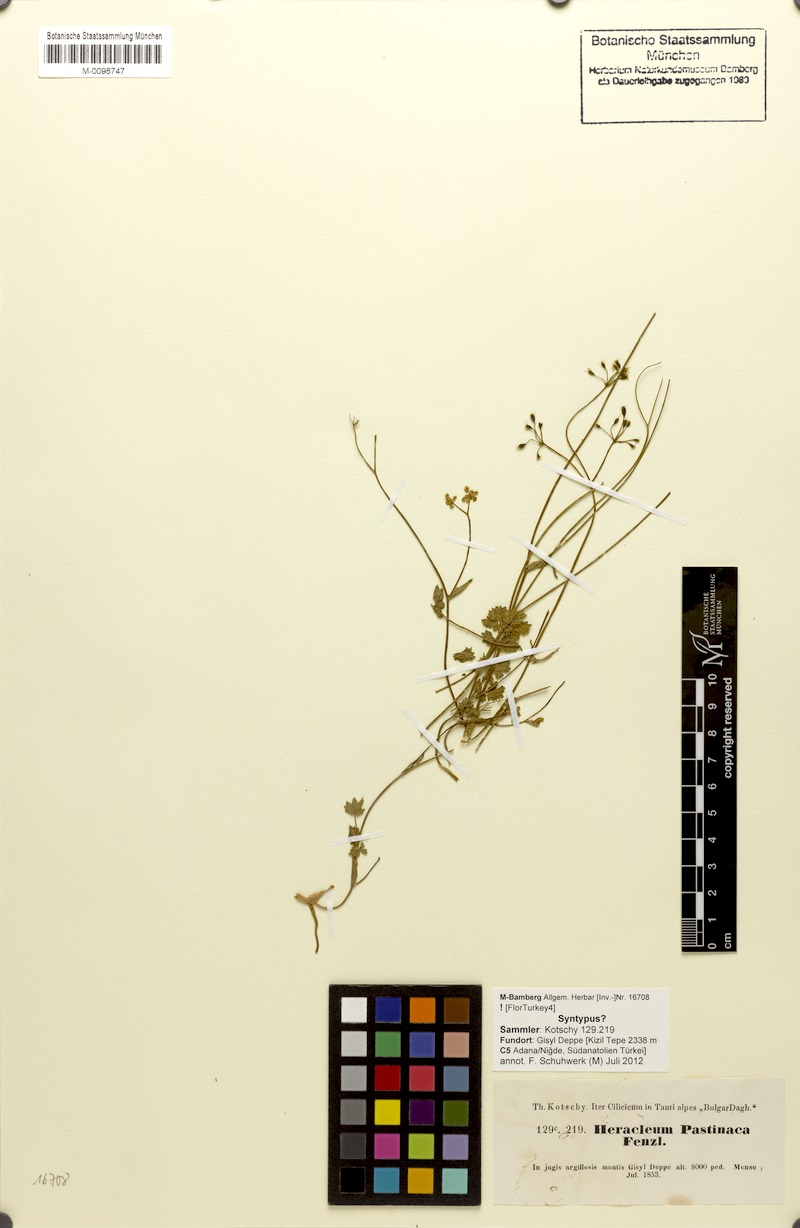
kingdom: Plantae
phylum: Tracheophyta
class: Magnoliopsida
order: Apiales
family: Apiaceae
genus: Heracleum
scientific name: Heracleum pastinaca
